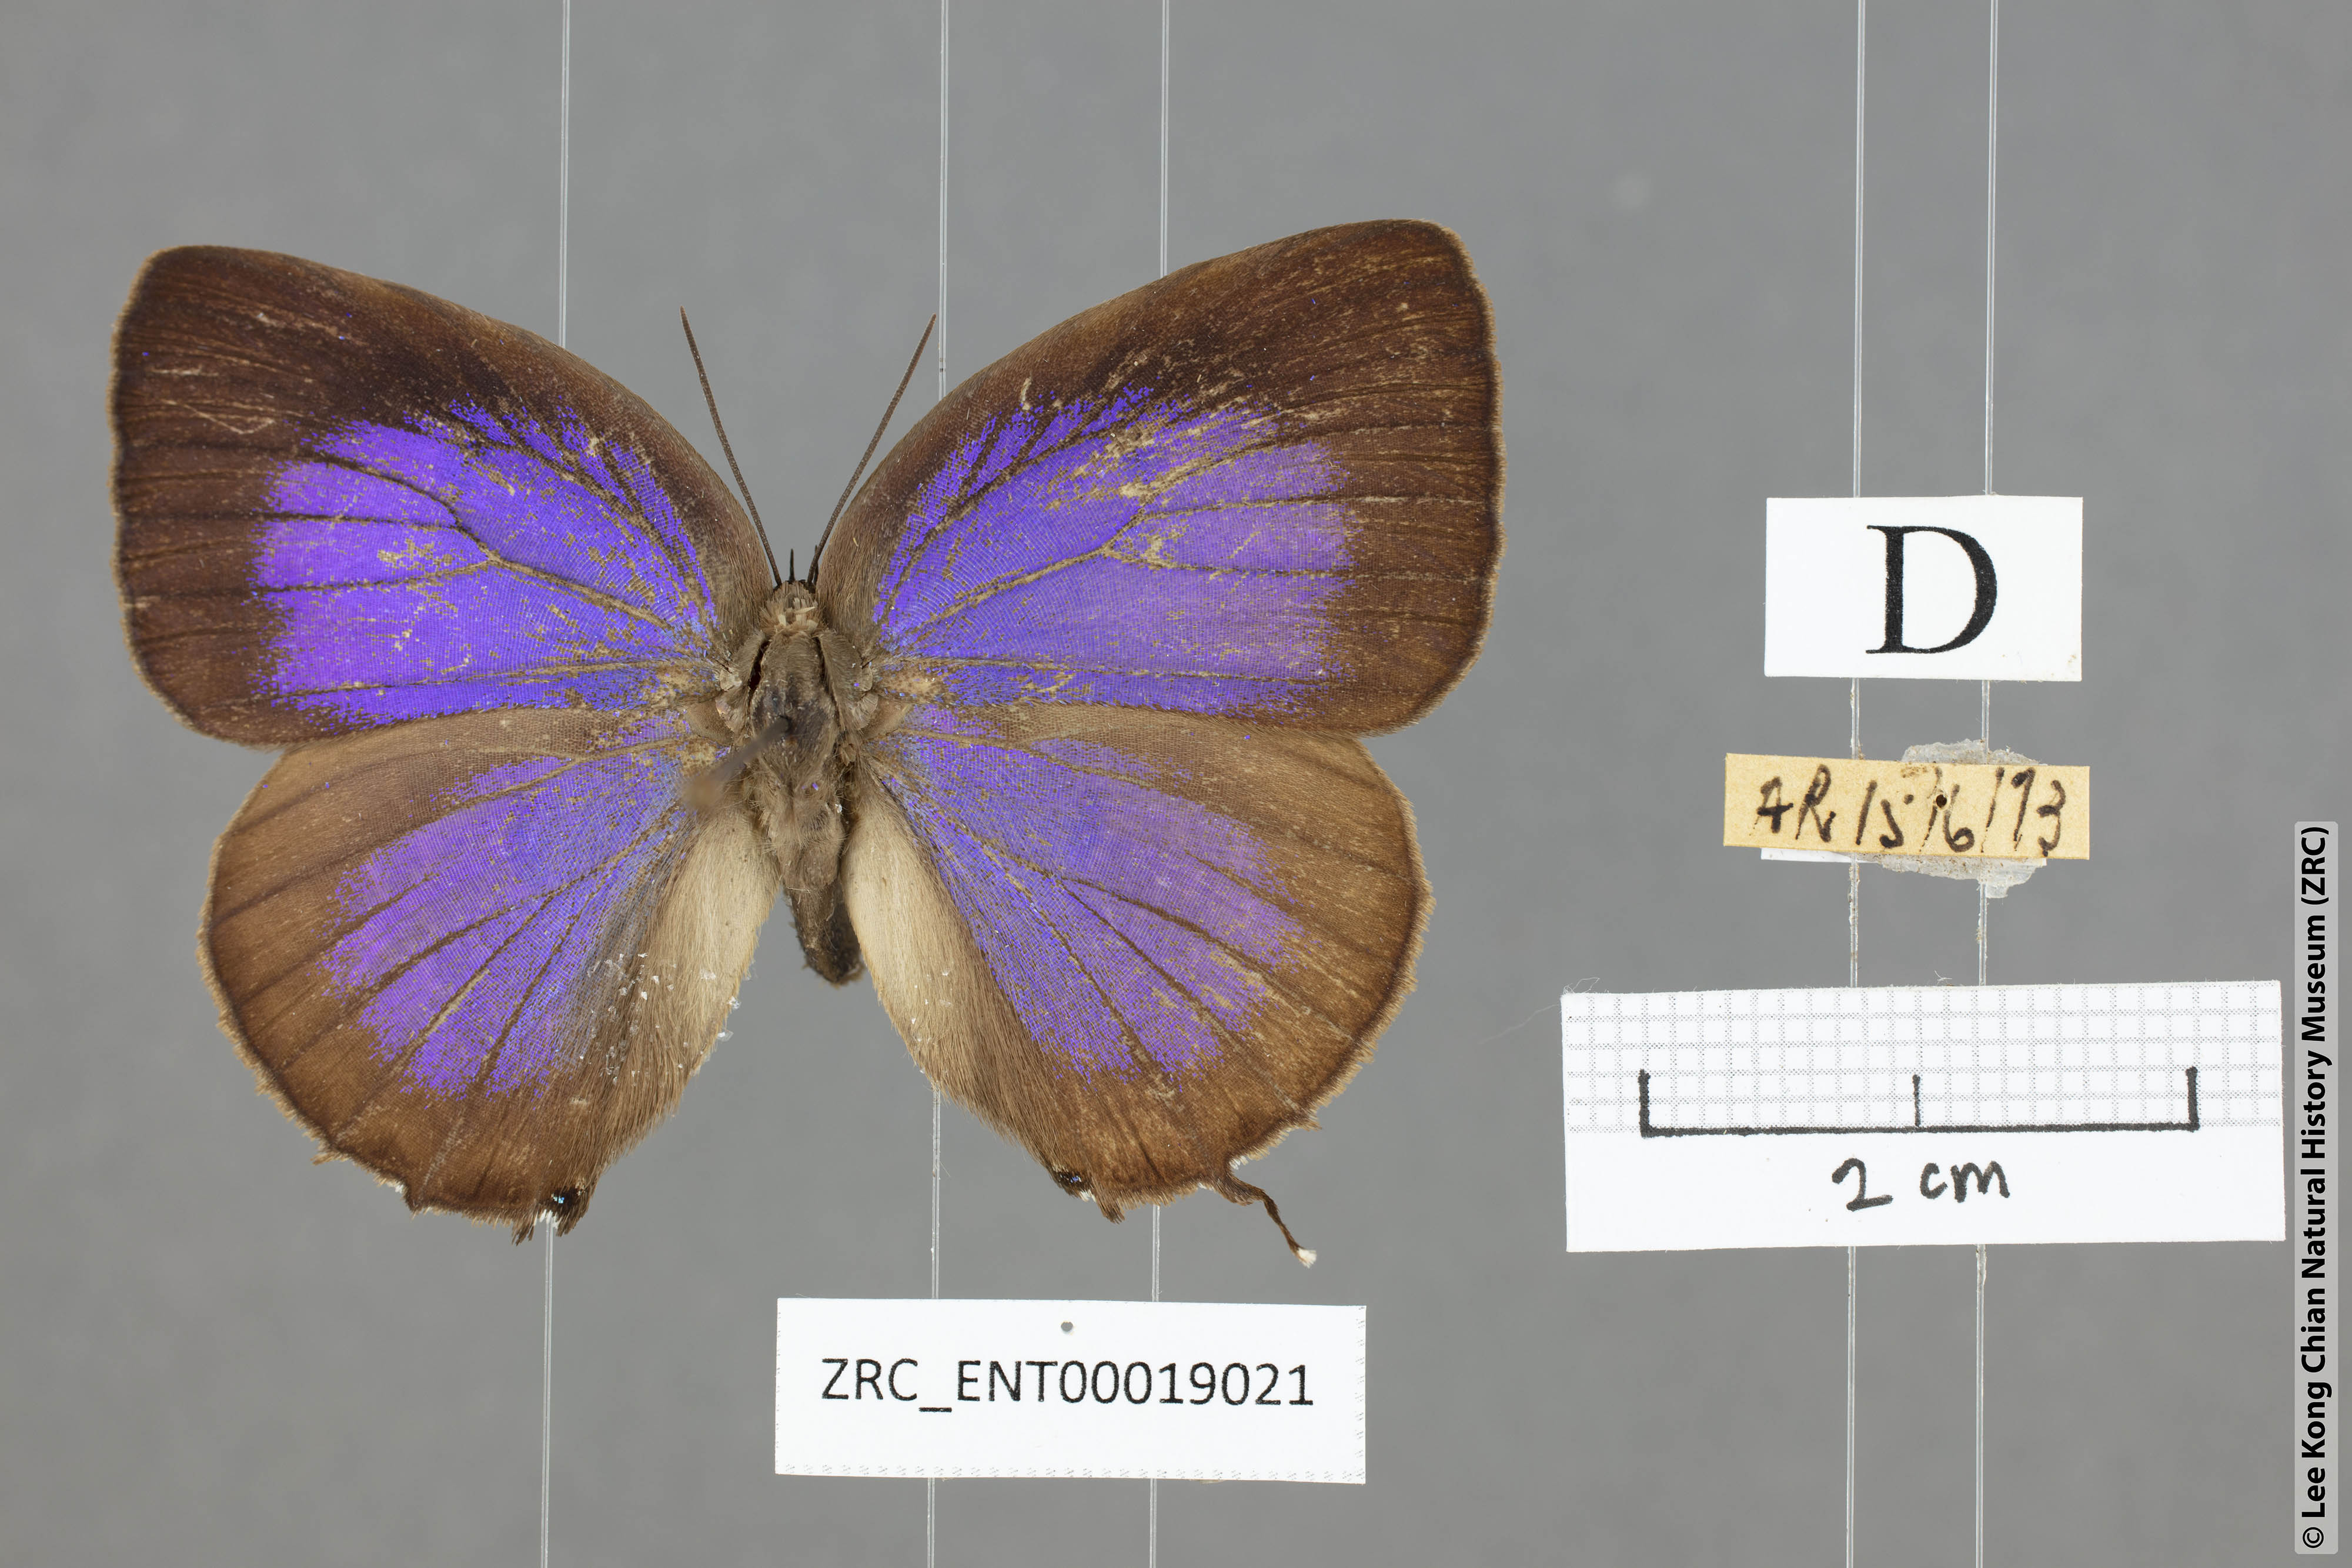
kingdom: Animalia
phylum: Arthropoda
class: Insecta
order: Lepidoptera
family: Lycaenidae
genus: Arhopala
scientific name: Arhopala aedias
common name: Large metallic oakblue
